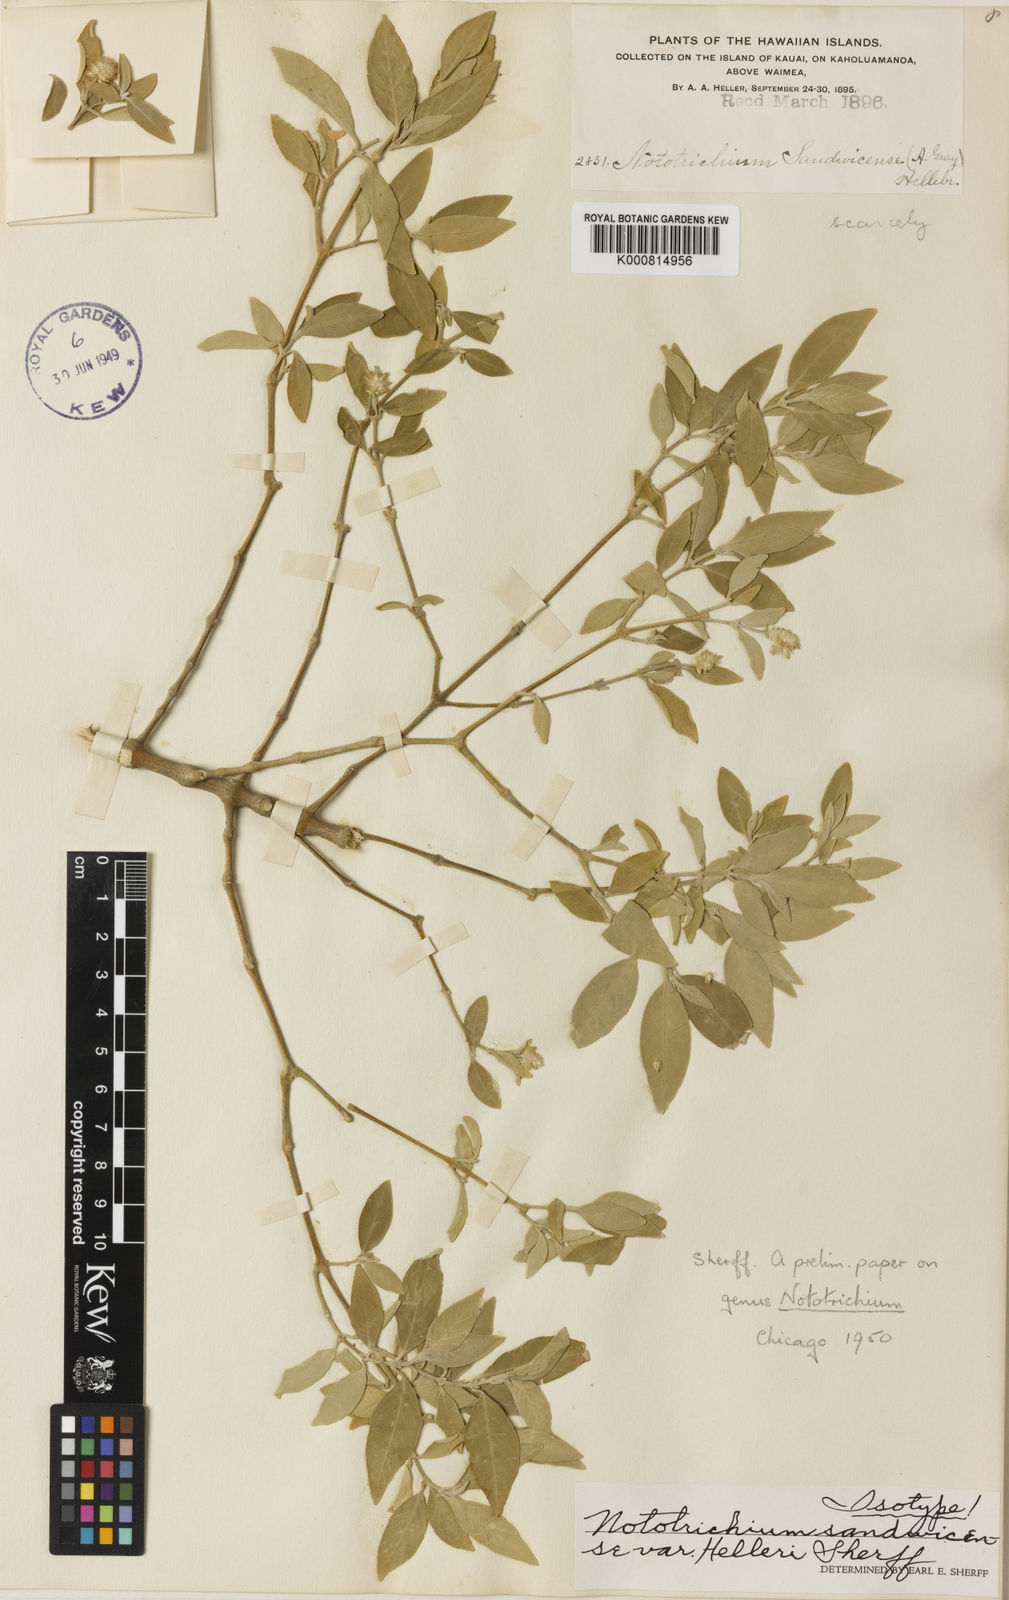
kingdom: Plantae
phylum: Tracheophyta
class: Magnoliopsida
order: Caryophyllales
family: Amaranthaceae
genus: Nototrichium
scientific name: Nototrichium
